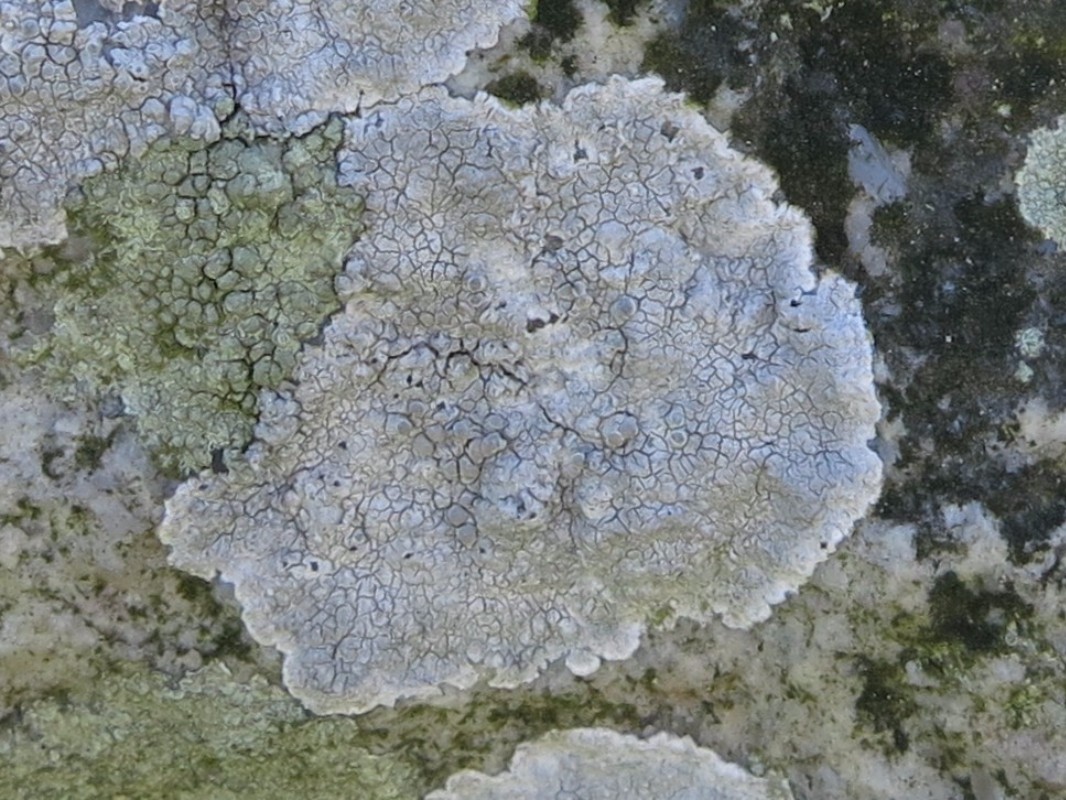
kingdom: Fungi
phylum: Ascomycota
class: Lecanoromycetes
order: Lecanorales
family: Lecanoraceae
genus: Glaucomaria
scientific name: Glaucomaria rupicola
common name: stengærde-kantskivelav
